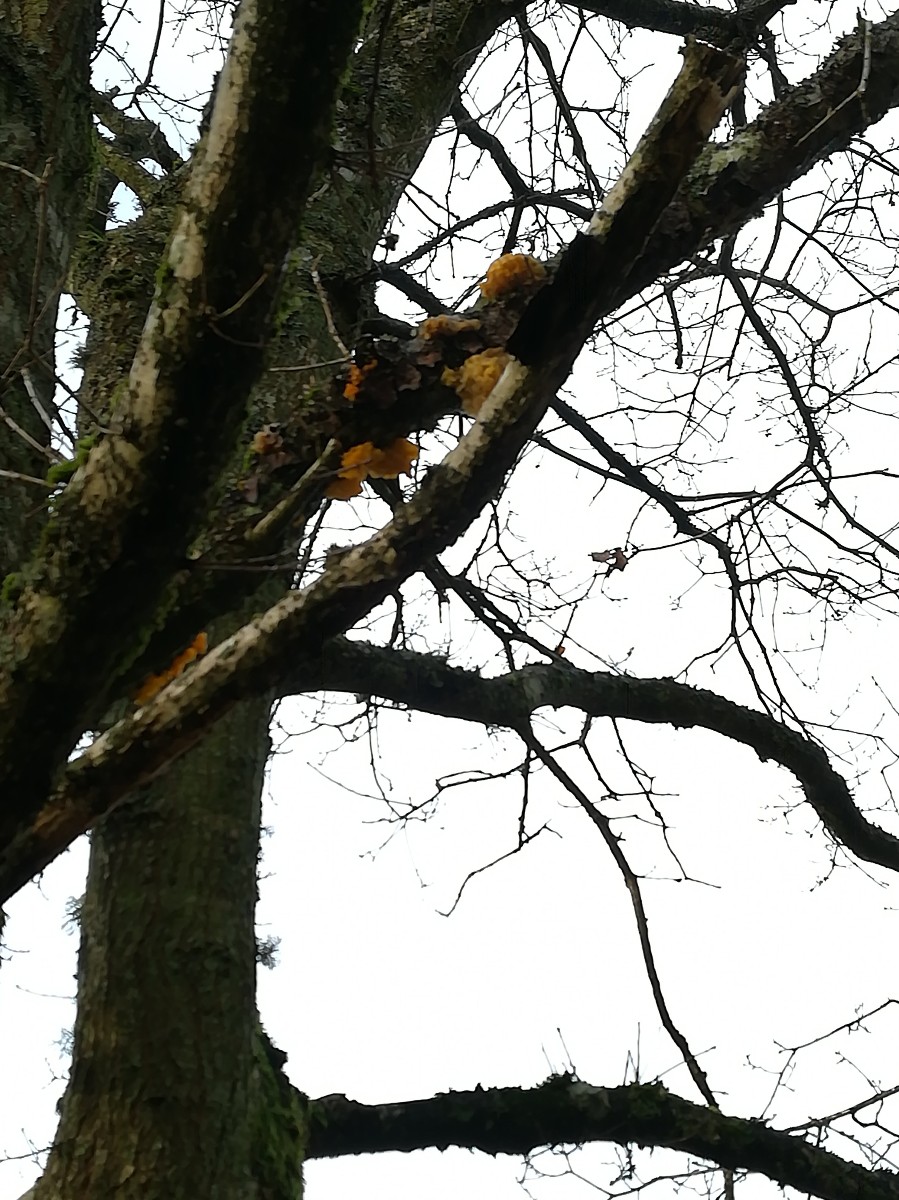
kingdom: Fungi
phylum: Basidiomycota
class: Tremellomycetes
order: Tremellales
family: Tremellaceae
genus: Tremella
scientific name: Tremella mesenterica
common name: gul bævresvamp
